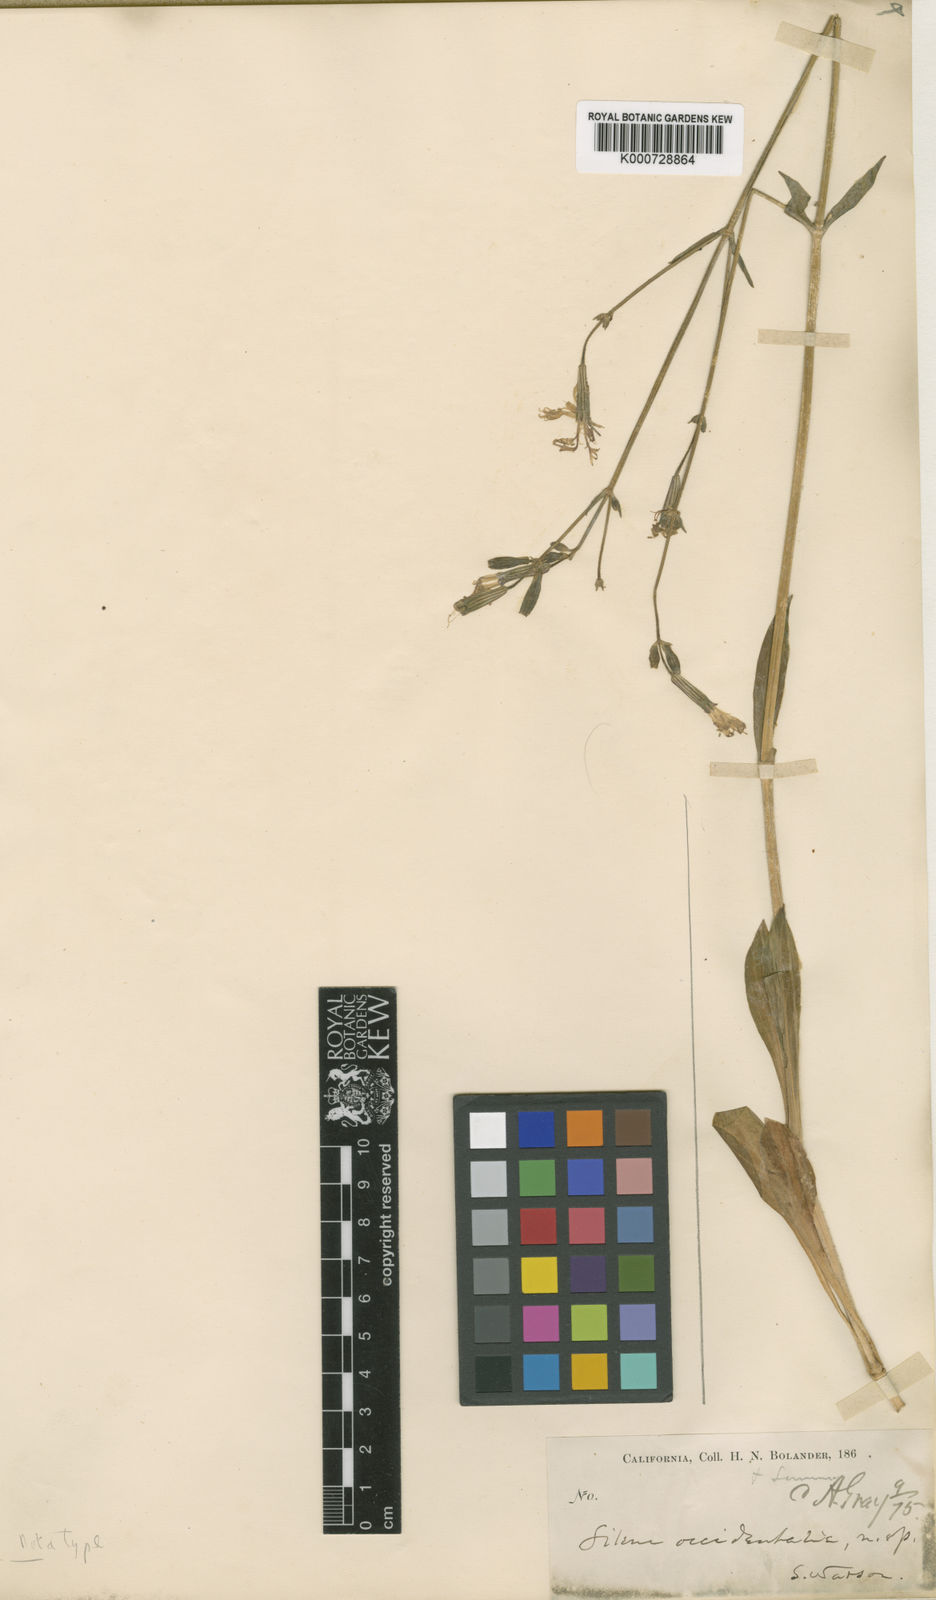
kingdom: Plantae
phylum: Tracheophyta
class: Magnoliopsida
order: Caryophyllales
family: Caryophyllaceae
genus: Silene
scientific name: Silene occidentalis
